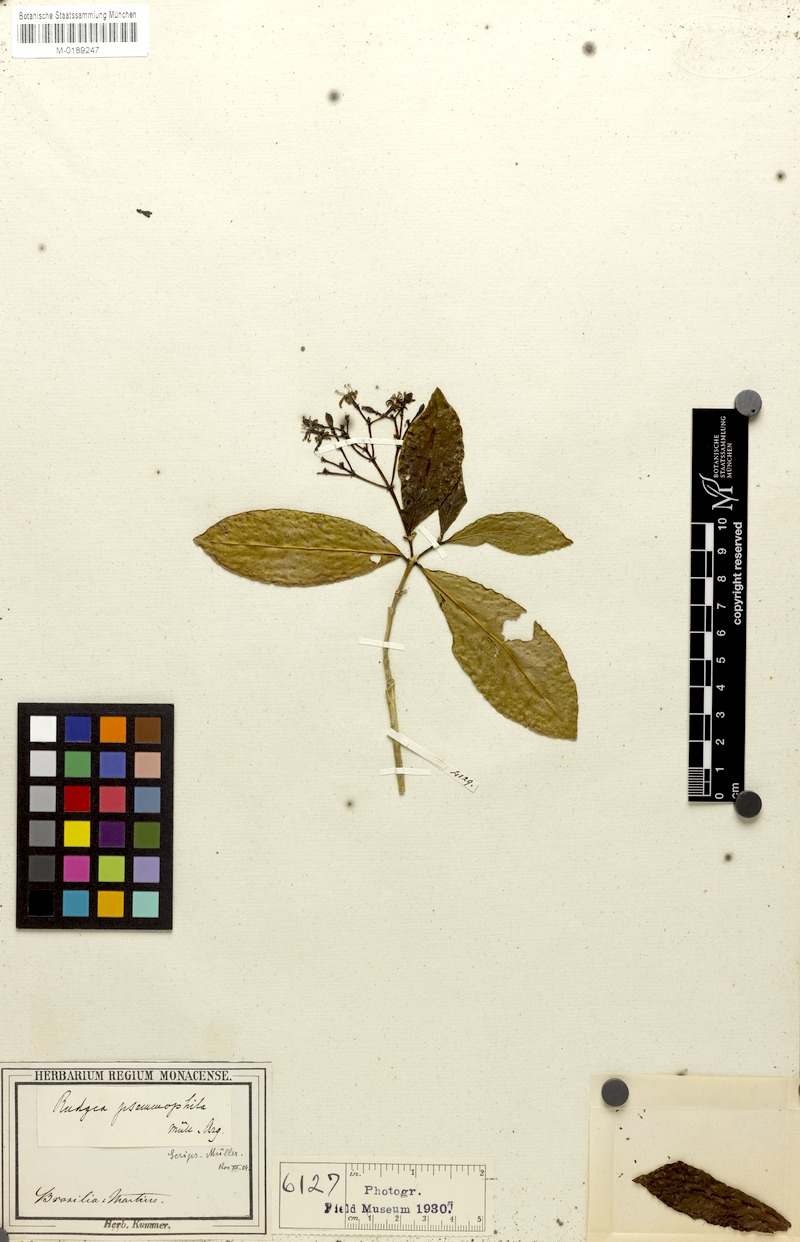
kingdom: Plantae
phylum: Tracheophyta
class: Magnoliopsida
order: Gentianales
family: Rubiaceae
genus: Rudgea
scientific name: Rudgea minor
